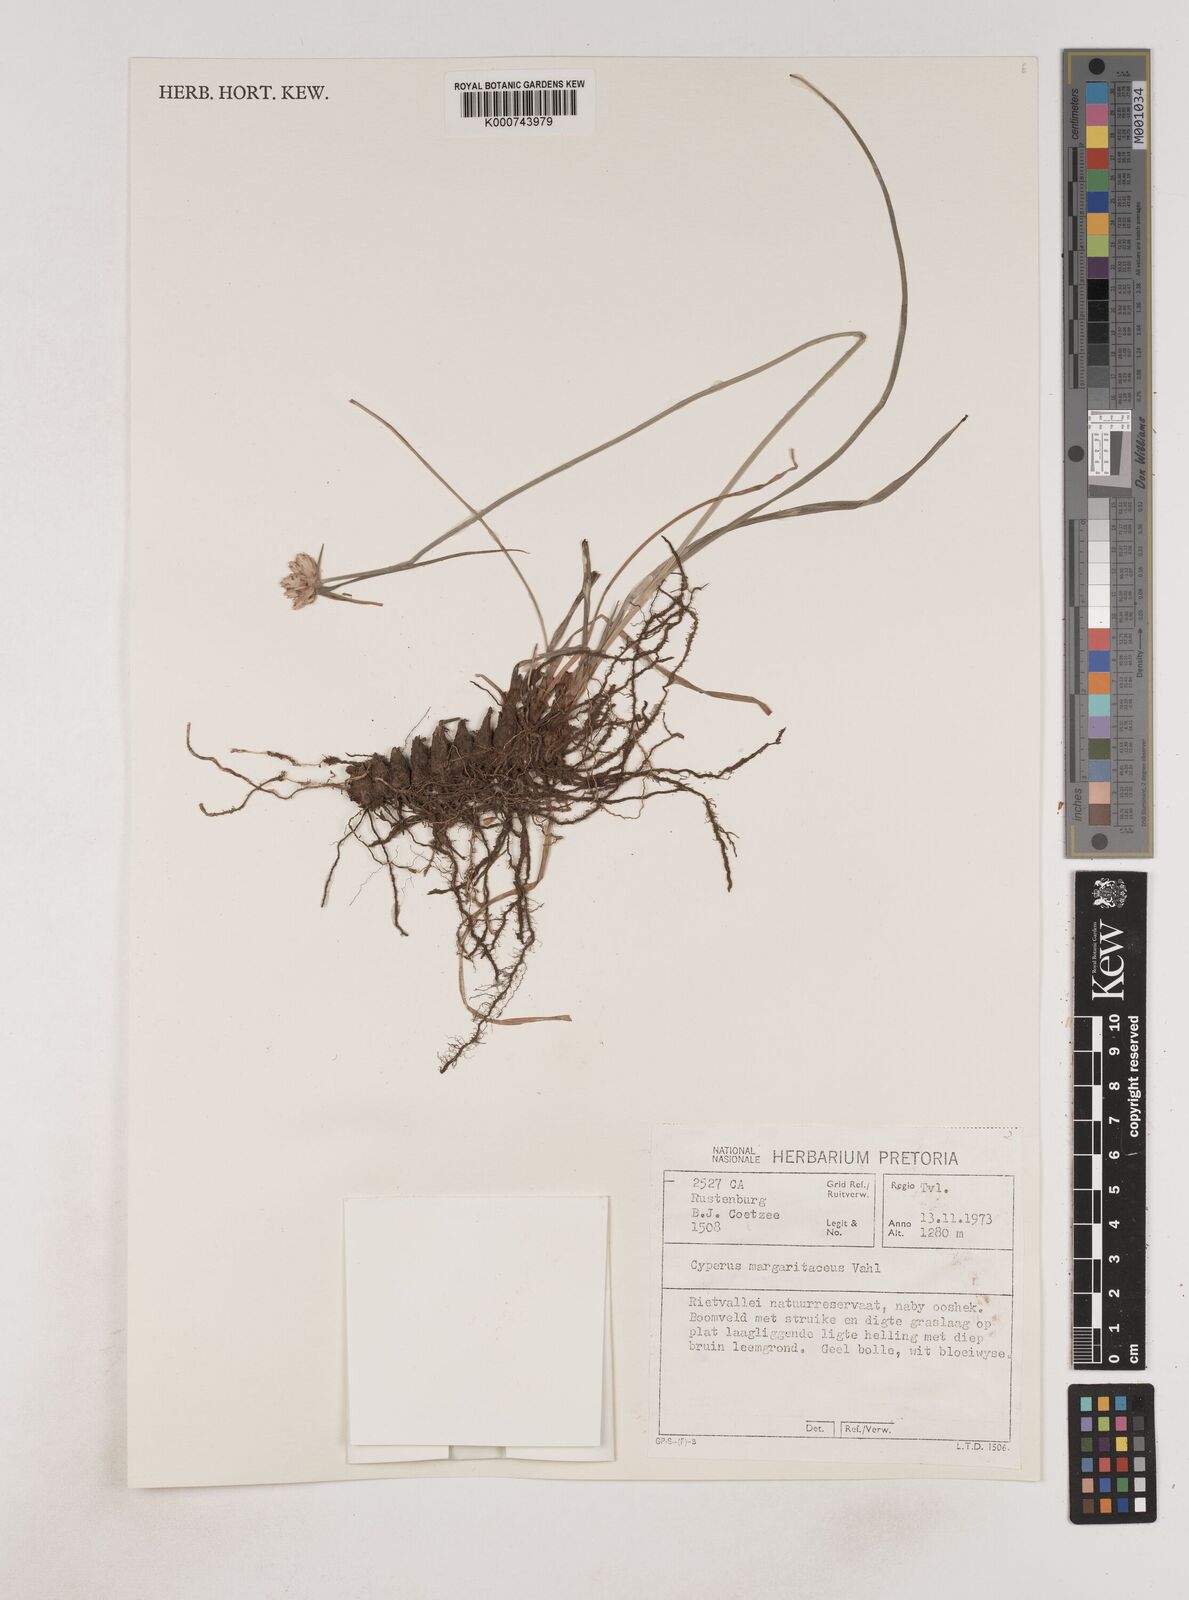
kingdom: Plantae
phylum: Tracheophyta
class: Liliopsida
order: Poales
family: Cyperaceae
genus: Cyperus
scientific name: Cyperus margaritaceus
